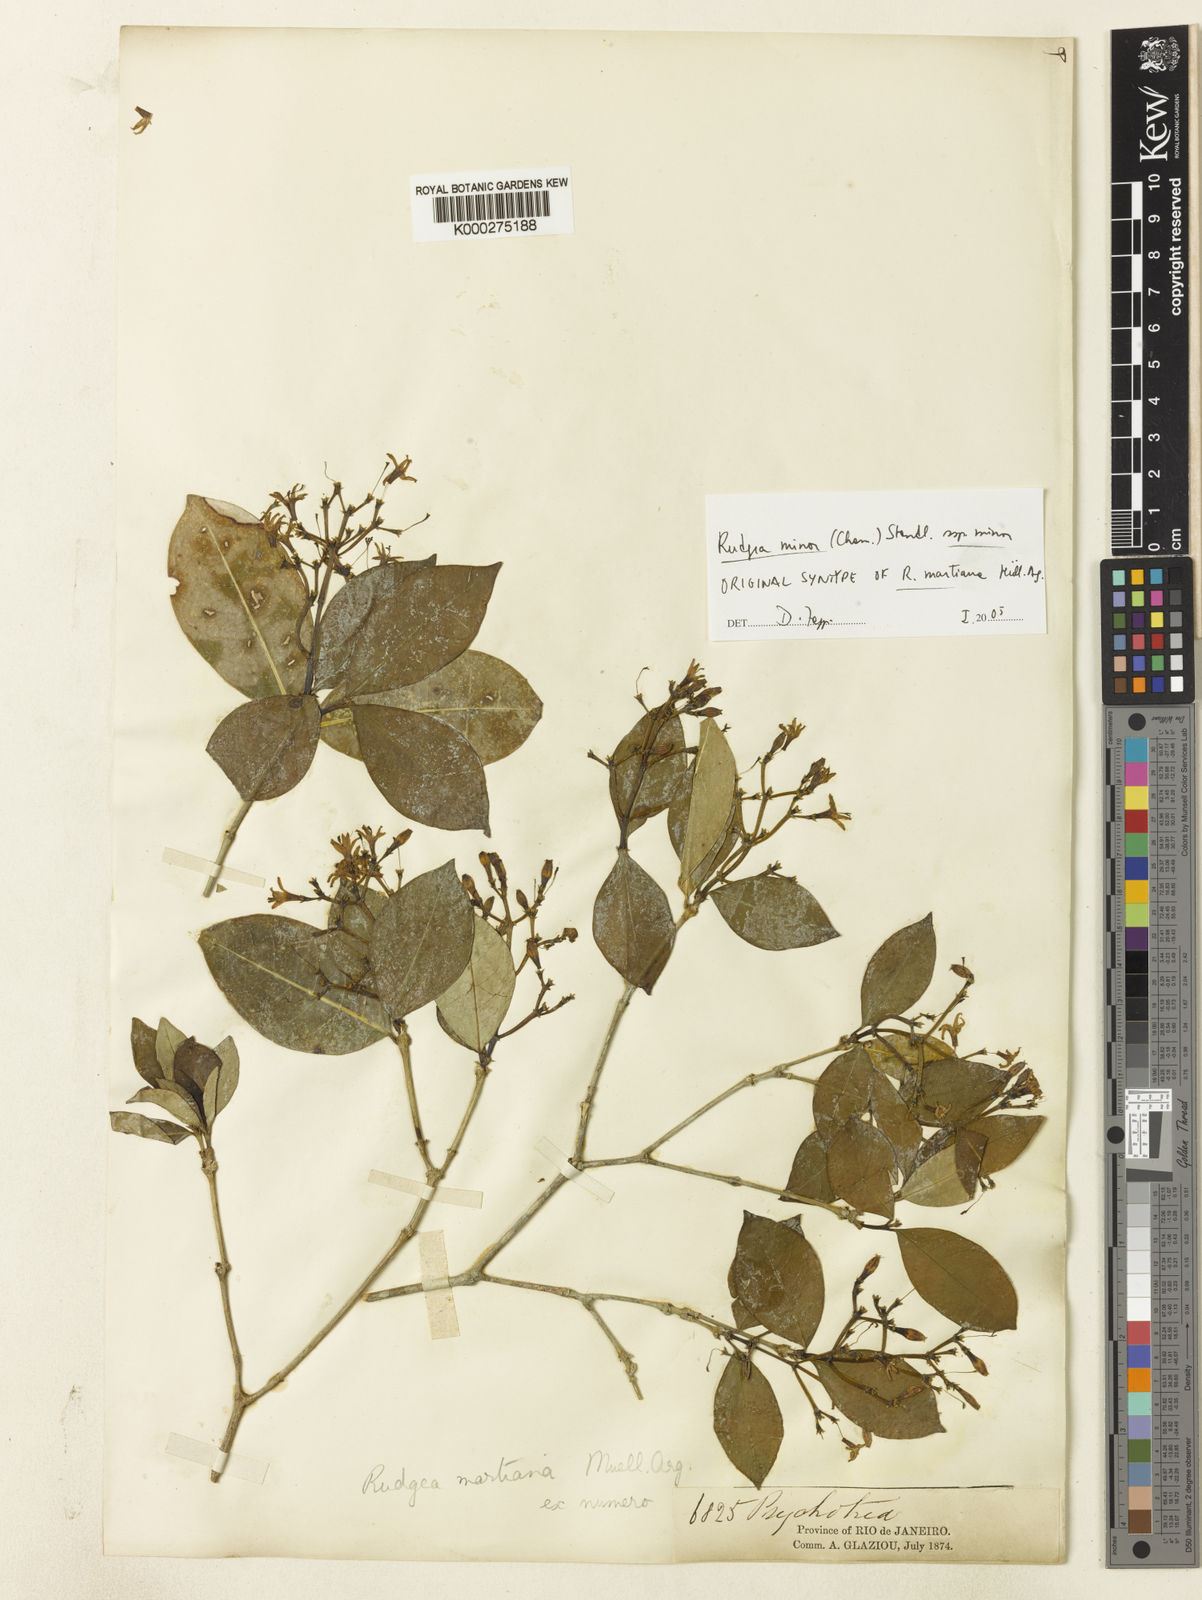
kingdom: Plantae
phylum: Tracheophyta
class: Magnoliopsida
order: Gentianales
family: Rubiaceae
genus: Rudgea
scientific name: Rudgea minor
